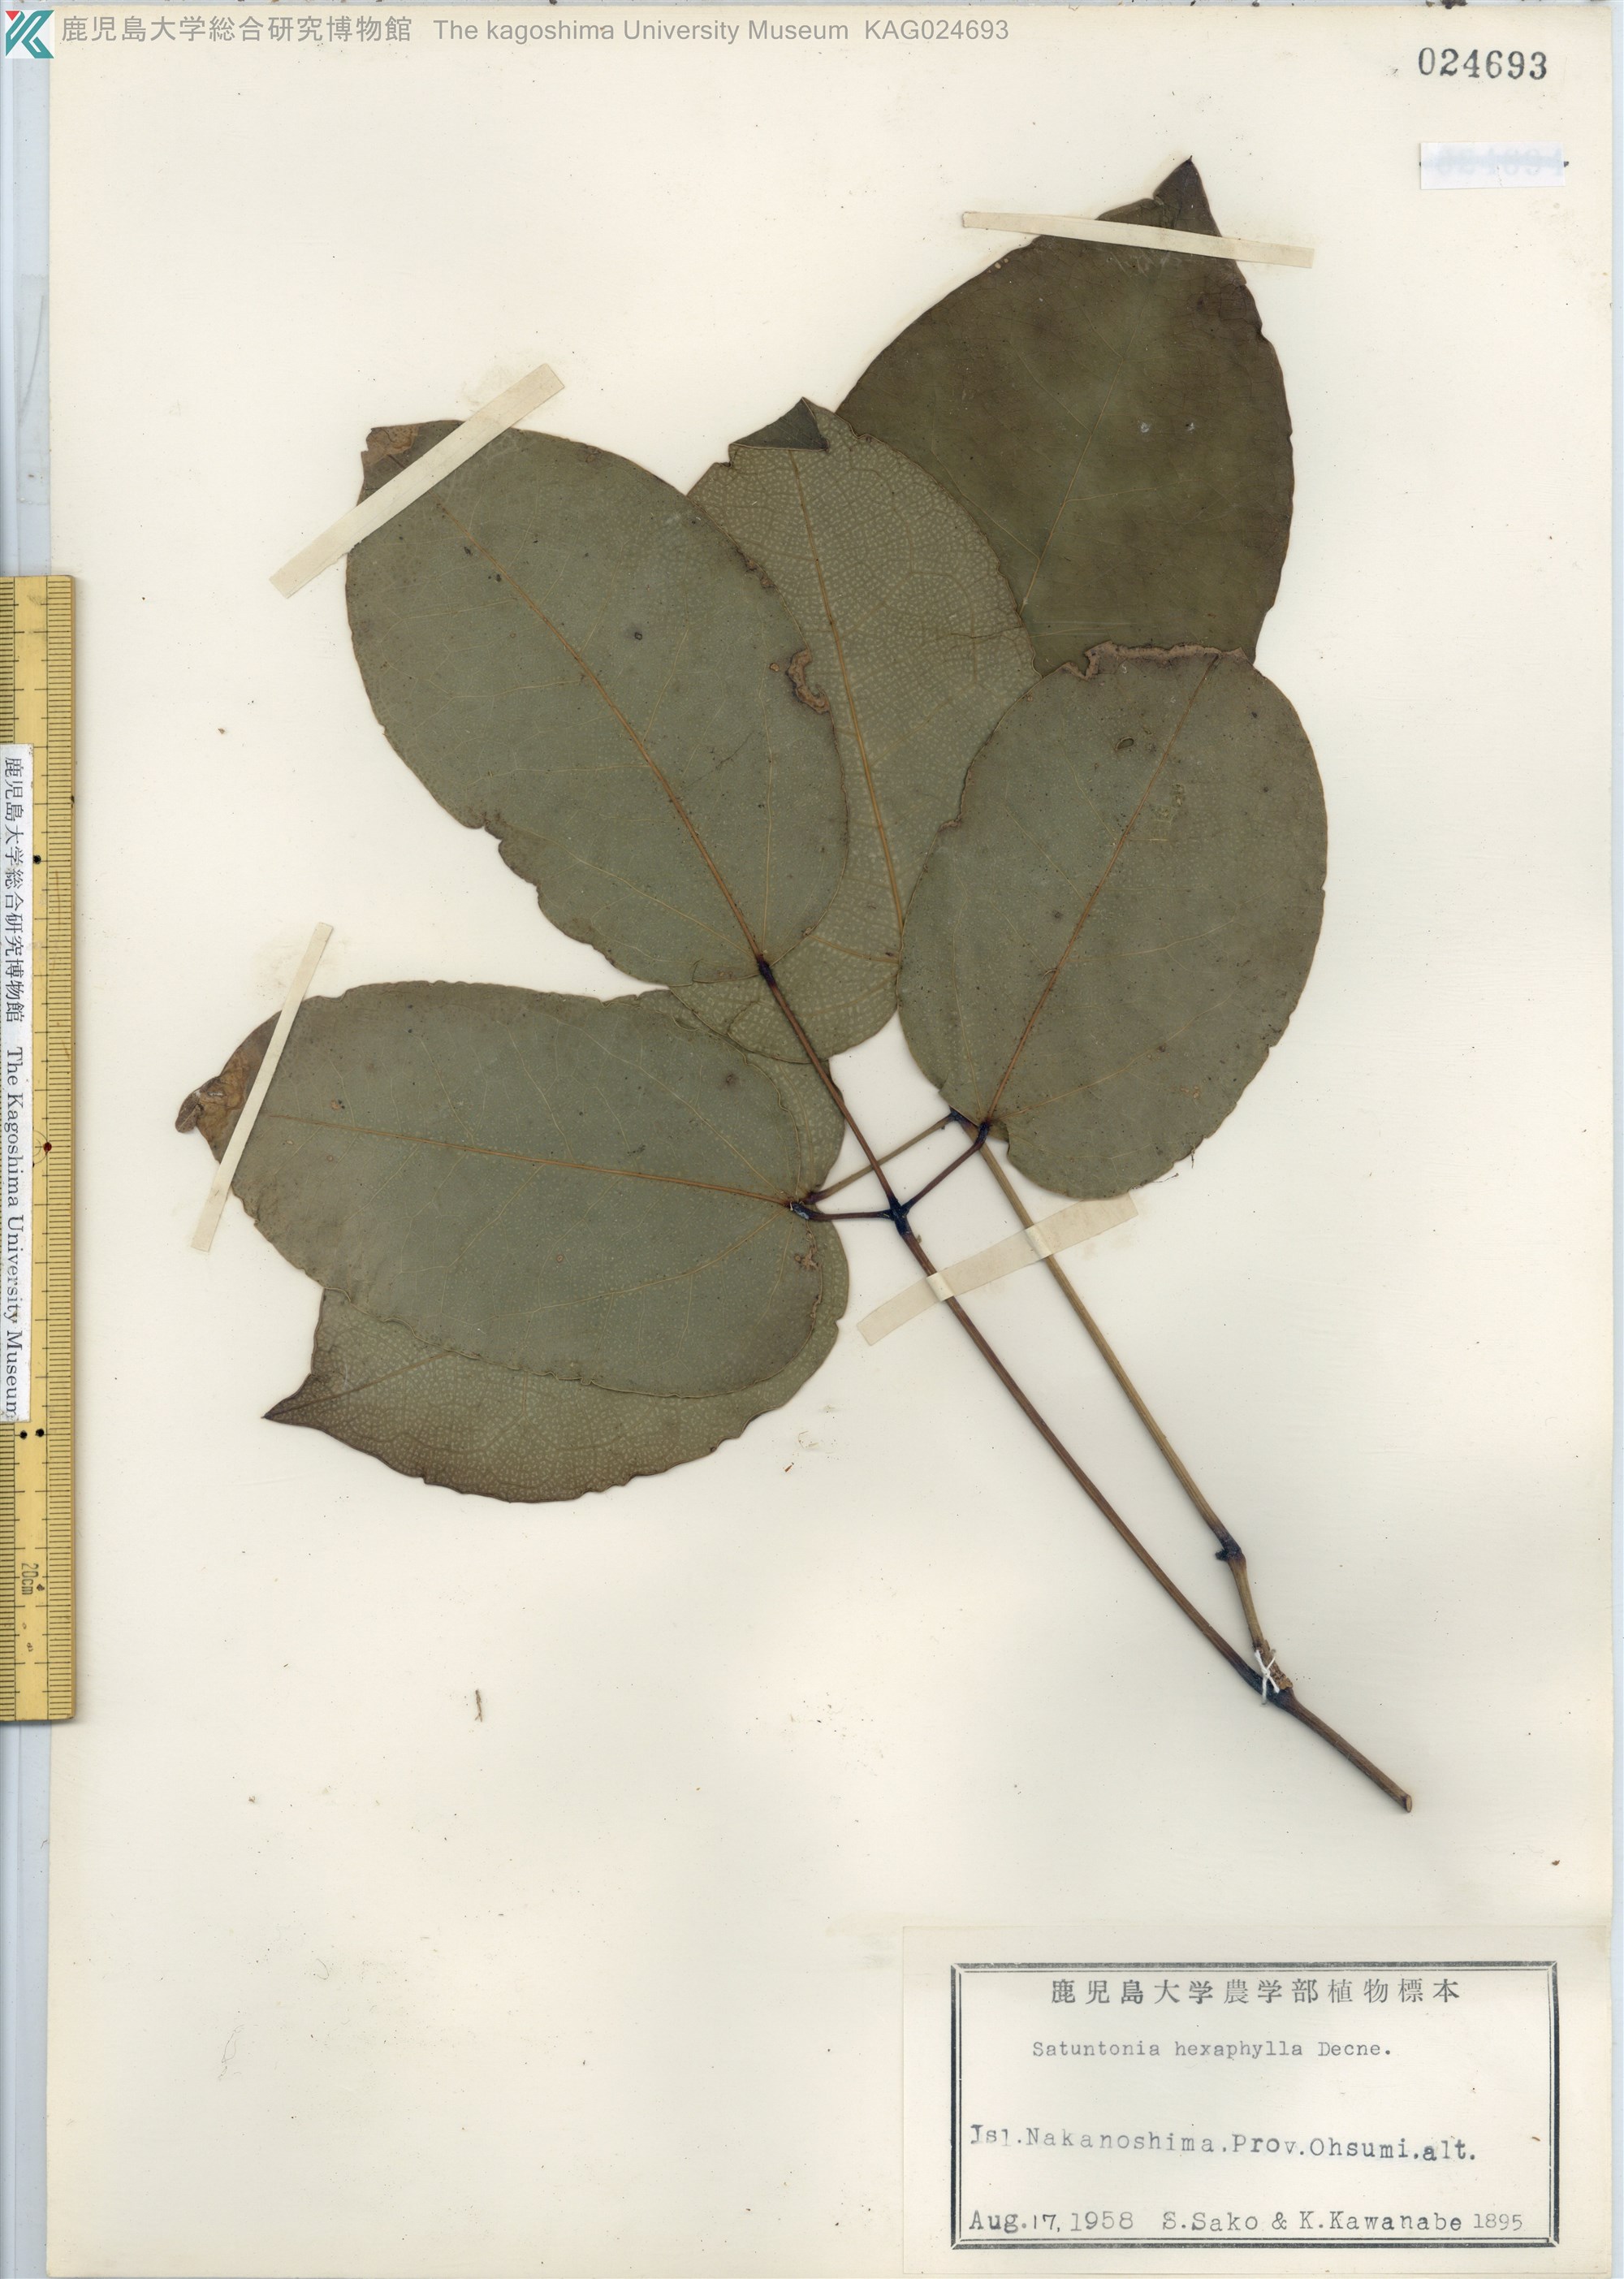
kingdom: Plantae
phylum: Tracheophyta
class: Magnoliopsida
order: Ranunculales
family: Lardizabalaceae
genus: Stauntonia
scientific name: Stauntonia hexaphylla
